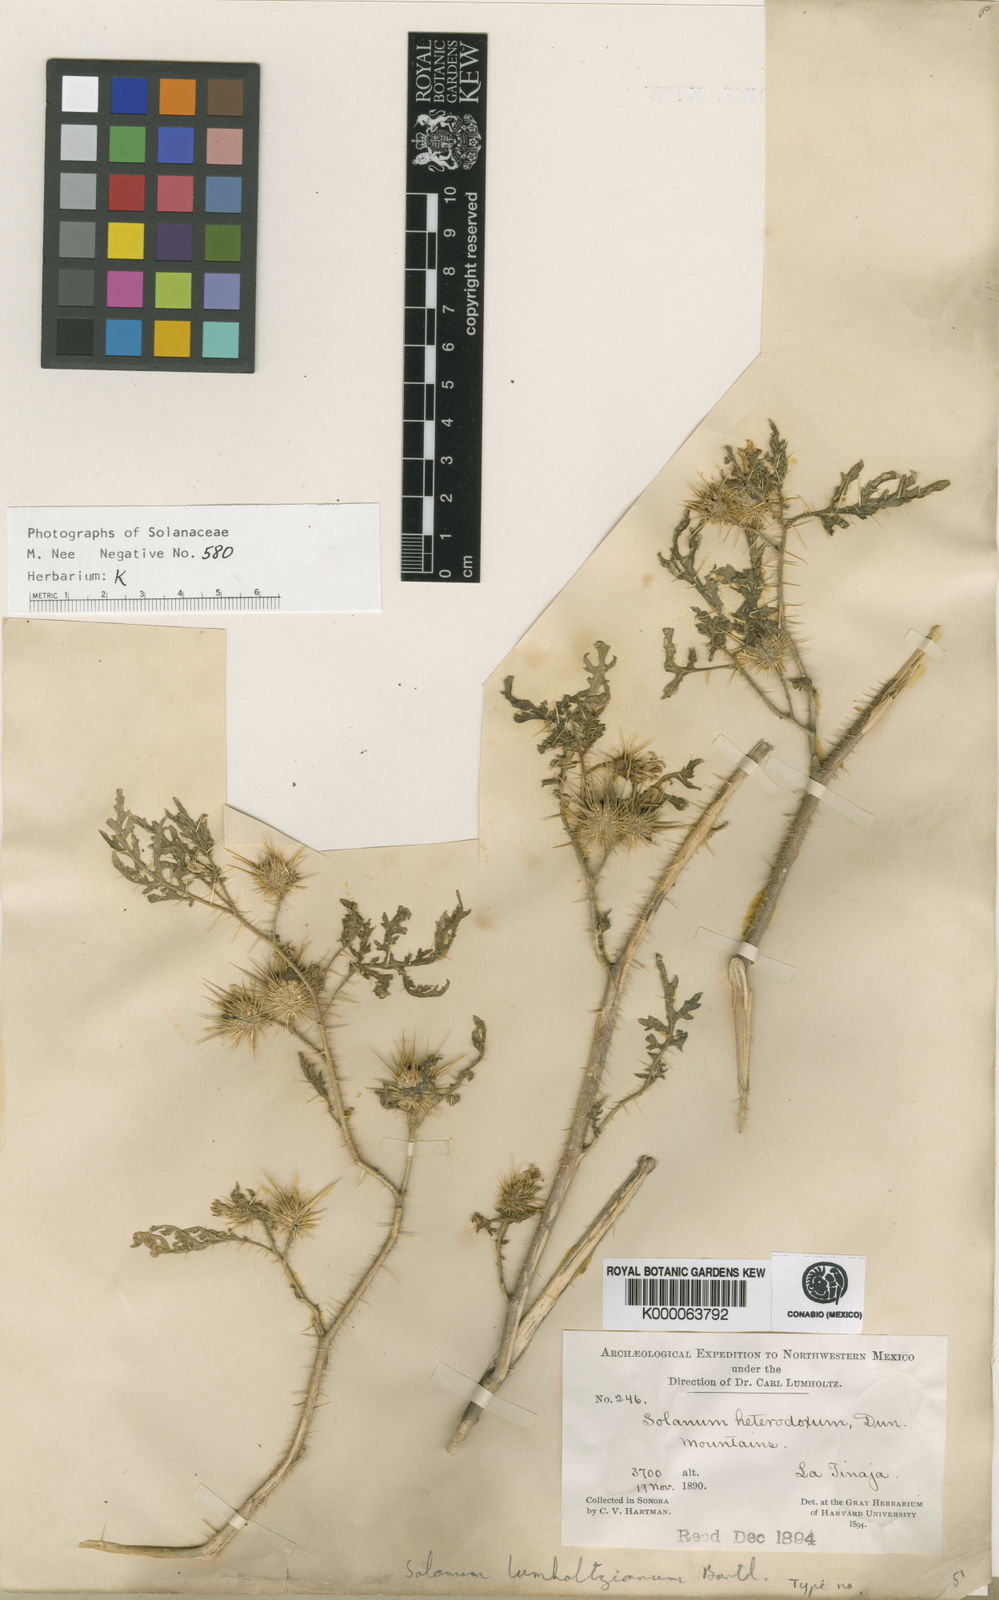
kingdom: Plantae
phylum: Tracheophyta
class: Magnoliopsida
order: Solanales
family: Solanaceae
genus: Solanum
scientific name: Solanum lumholtzianum
